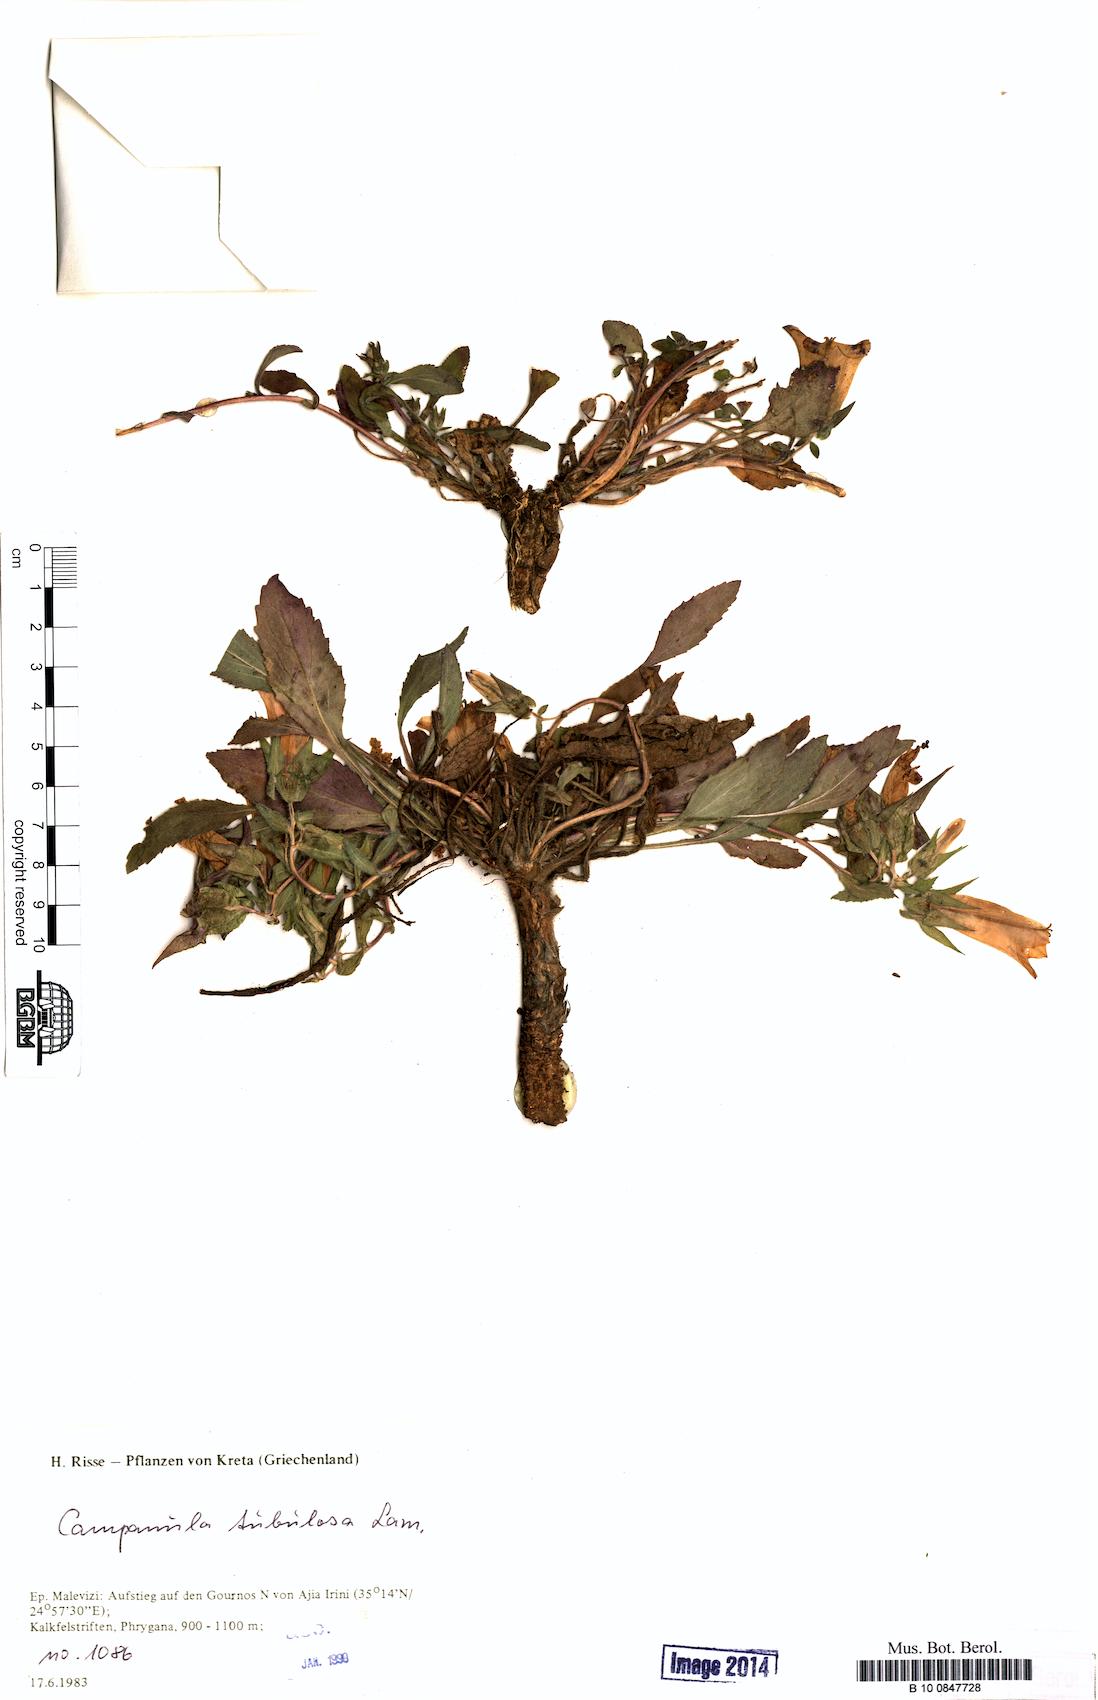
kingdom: Plantae
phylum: Tracheophyta
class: Magnoliopsida
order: Asterales
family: Campanulaceae
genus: Campanula
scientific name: Campanula tubulosa
